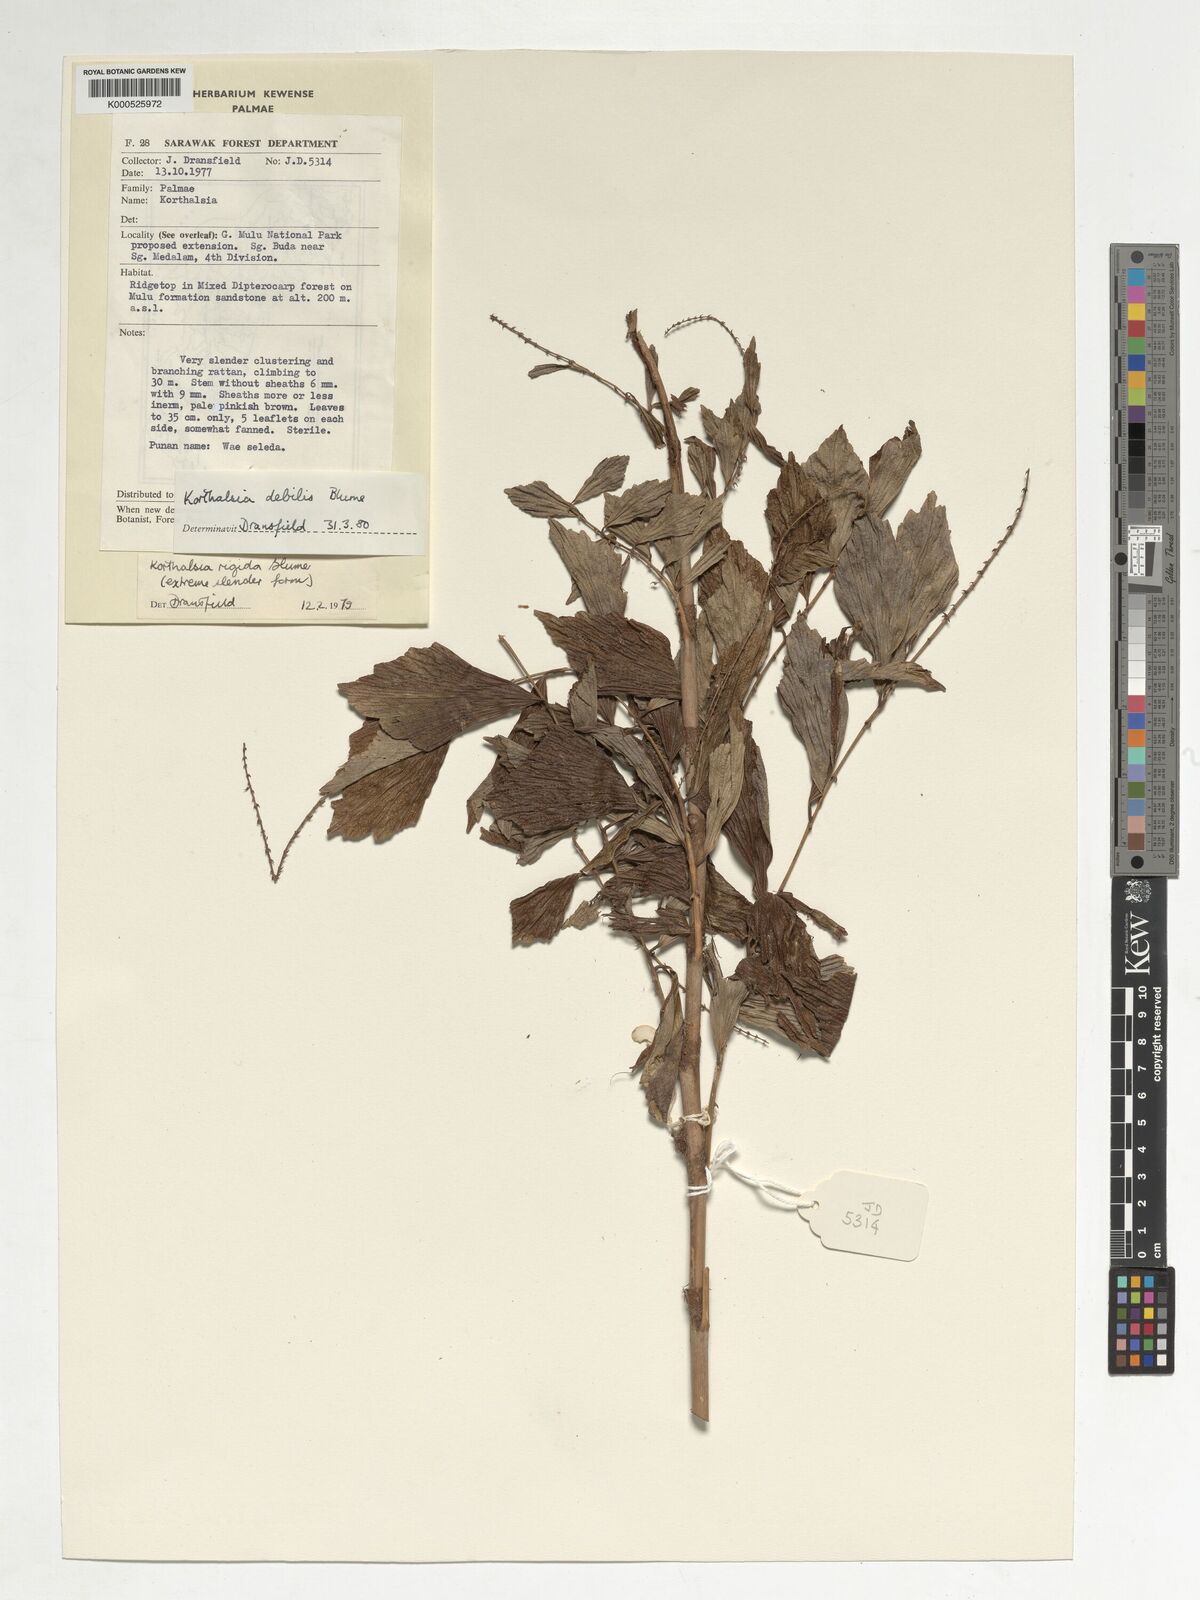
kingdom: Plantae
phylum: Tracheophyta
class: Liliopsida
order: Arecales
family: Arecaceae
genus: Korthalsia
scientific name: Korthalsia debilis
